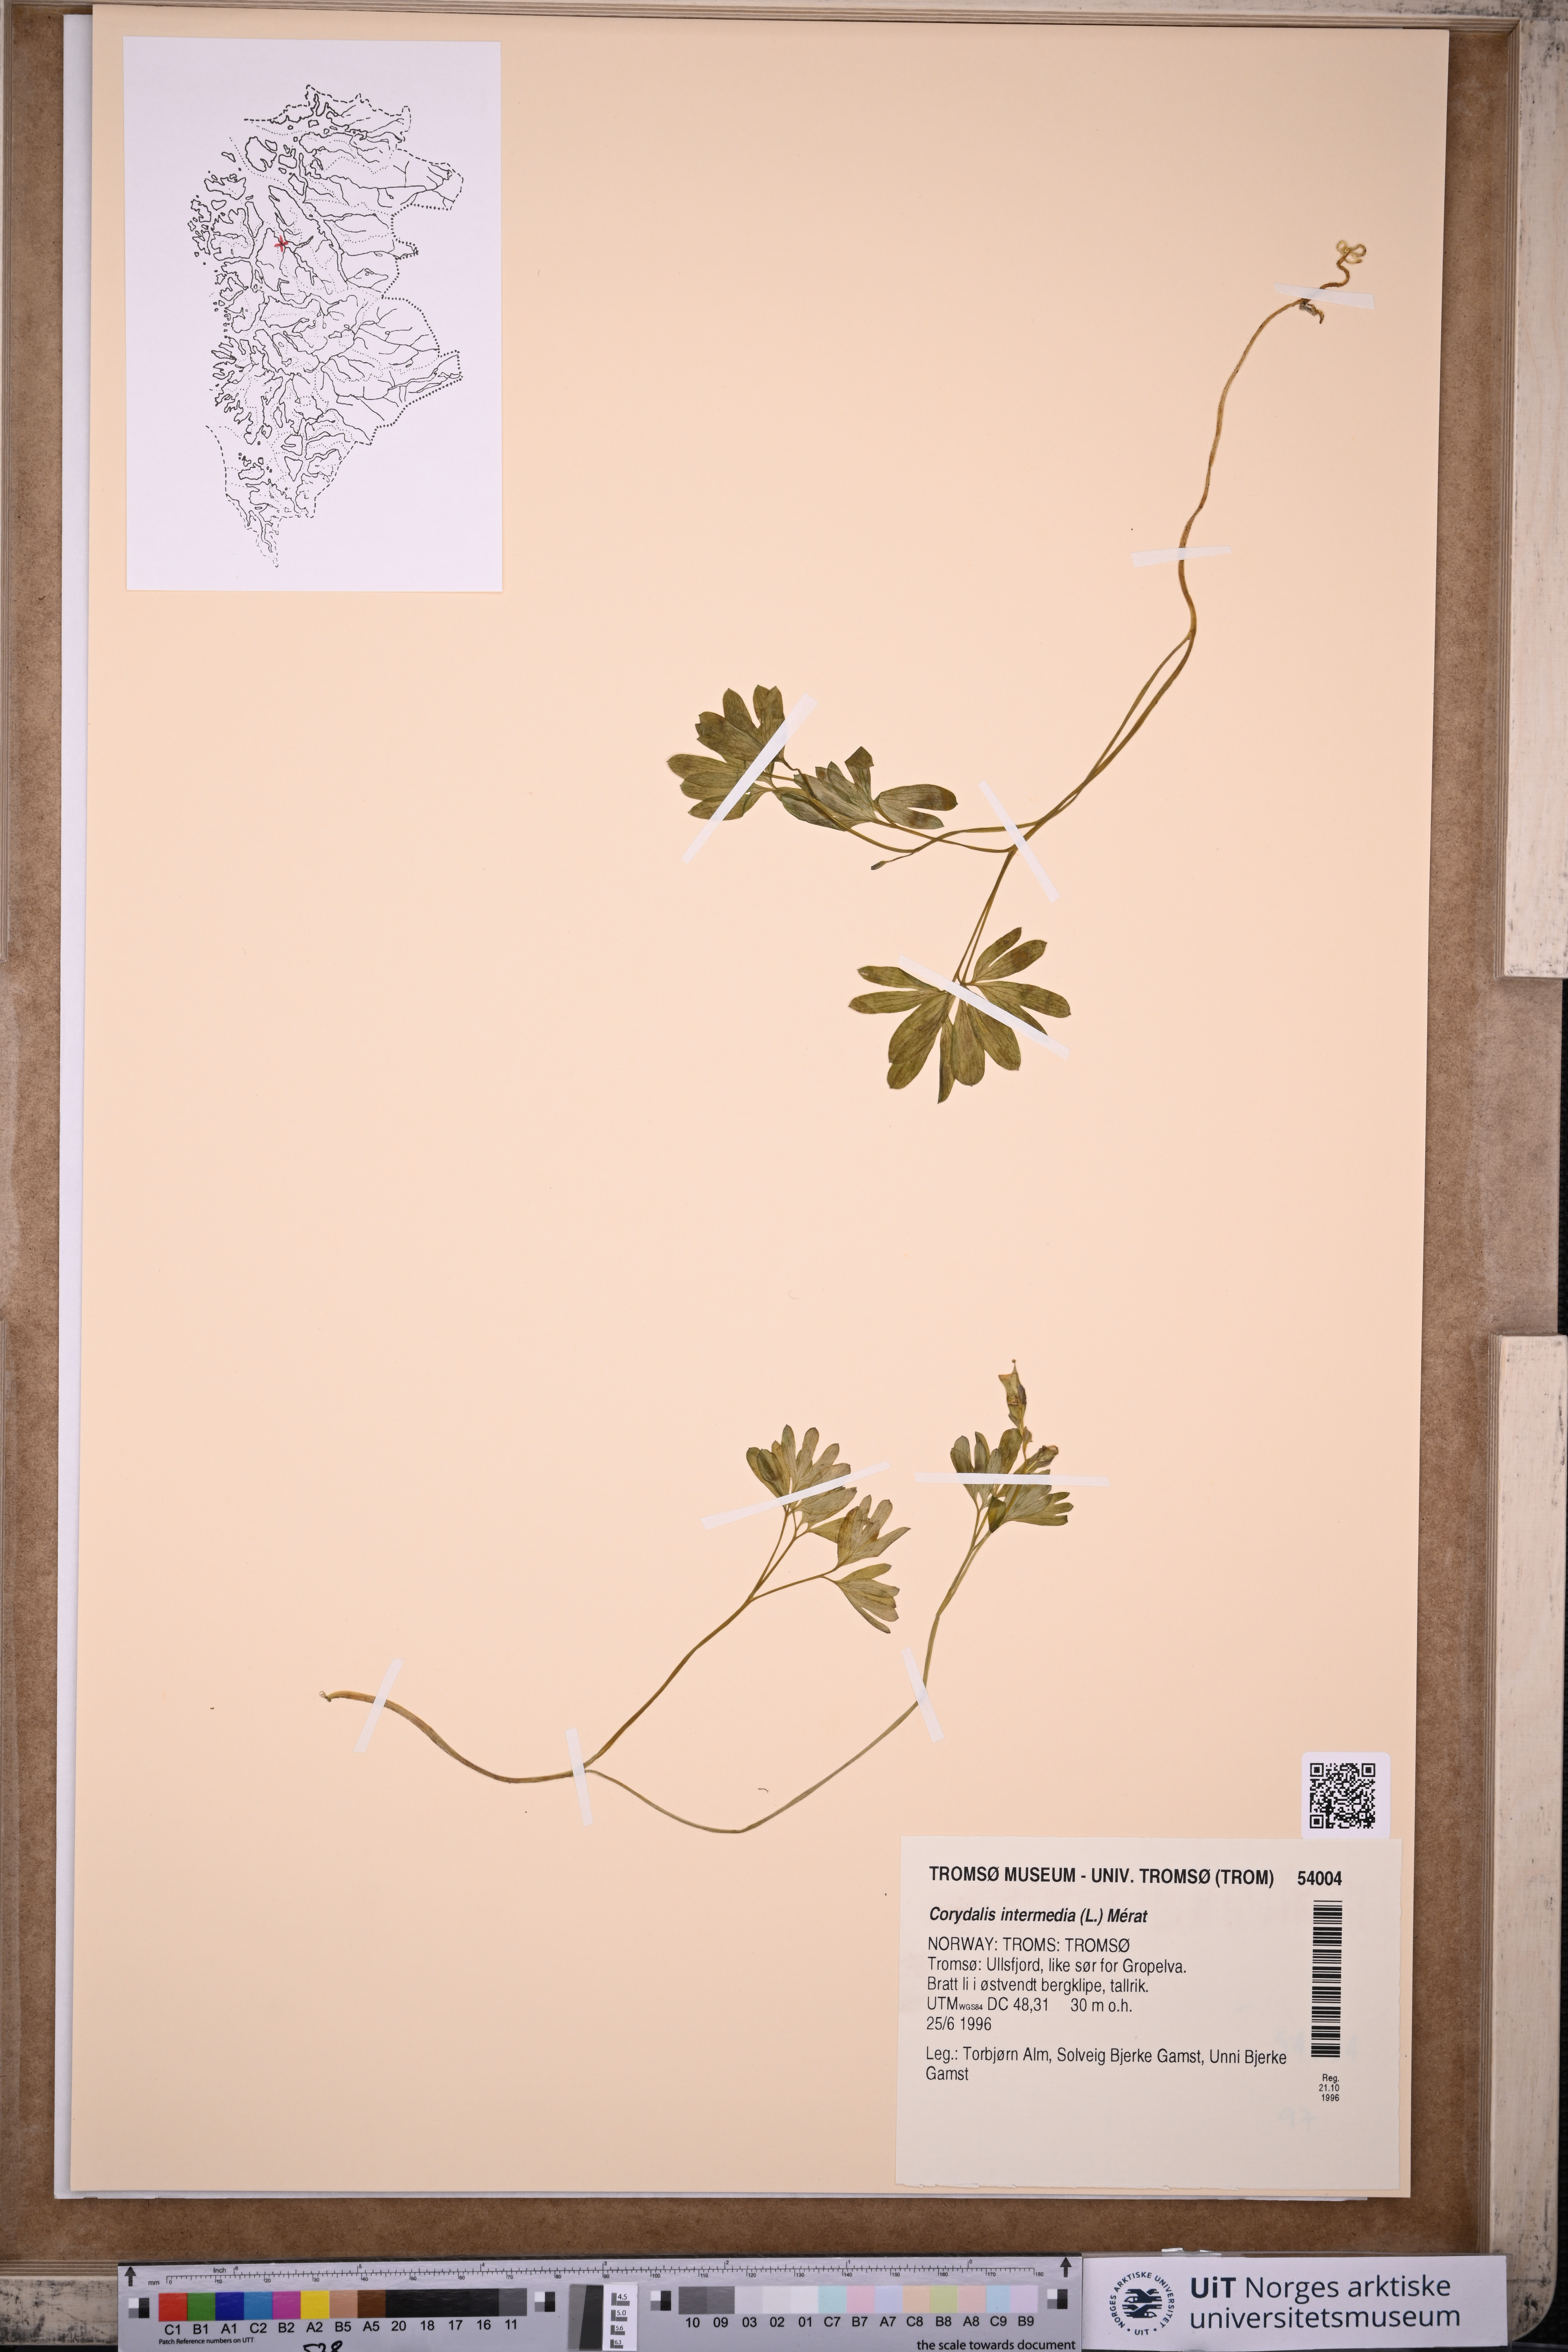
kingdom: Plantae
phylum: Tracheophyta
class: Magnoliopsida
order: Ranunculales
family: Papaveraceae
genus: Corydalis
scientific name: Corydalis intermedia
